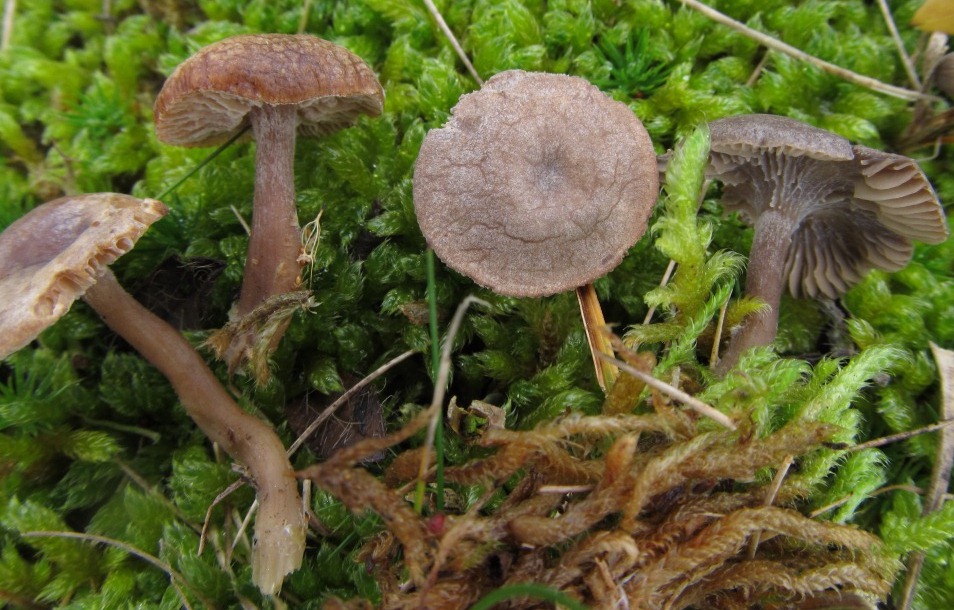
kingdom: Fungi
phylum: Basidiomycota
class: Agaricomycetes
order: Agaricales
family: Entolomataceae
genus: Clitopilus
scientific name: Clitopilus caelatus
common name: gråbrun troldhat
